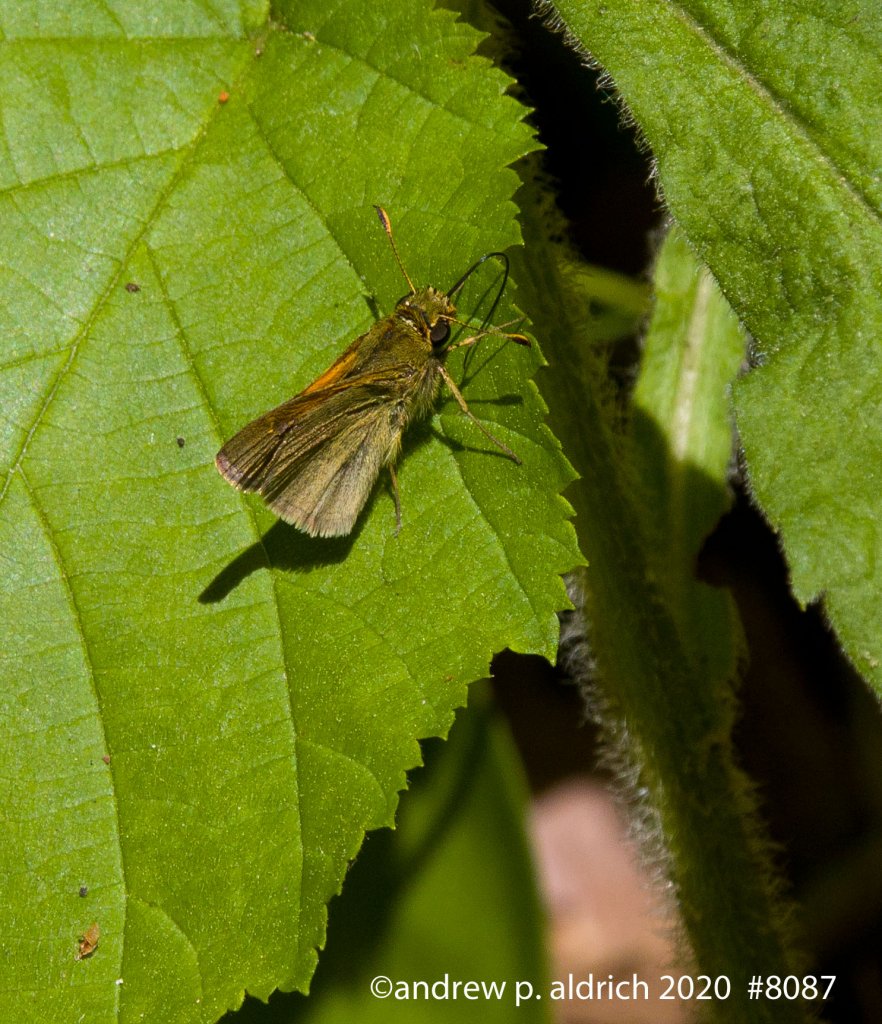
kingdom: Animalia
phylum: Arthropoda
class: Insecta
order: Lepidoptera
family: Hesperiidae
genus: Polites
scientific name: Polites themistocles
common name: Tawny-edged Skipper
